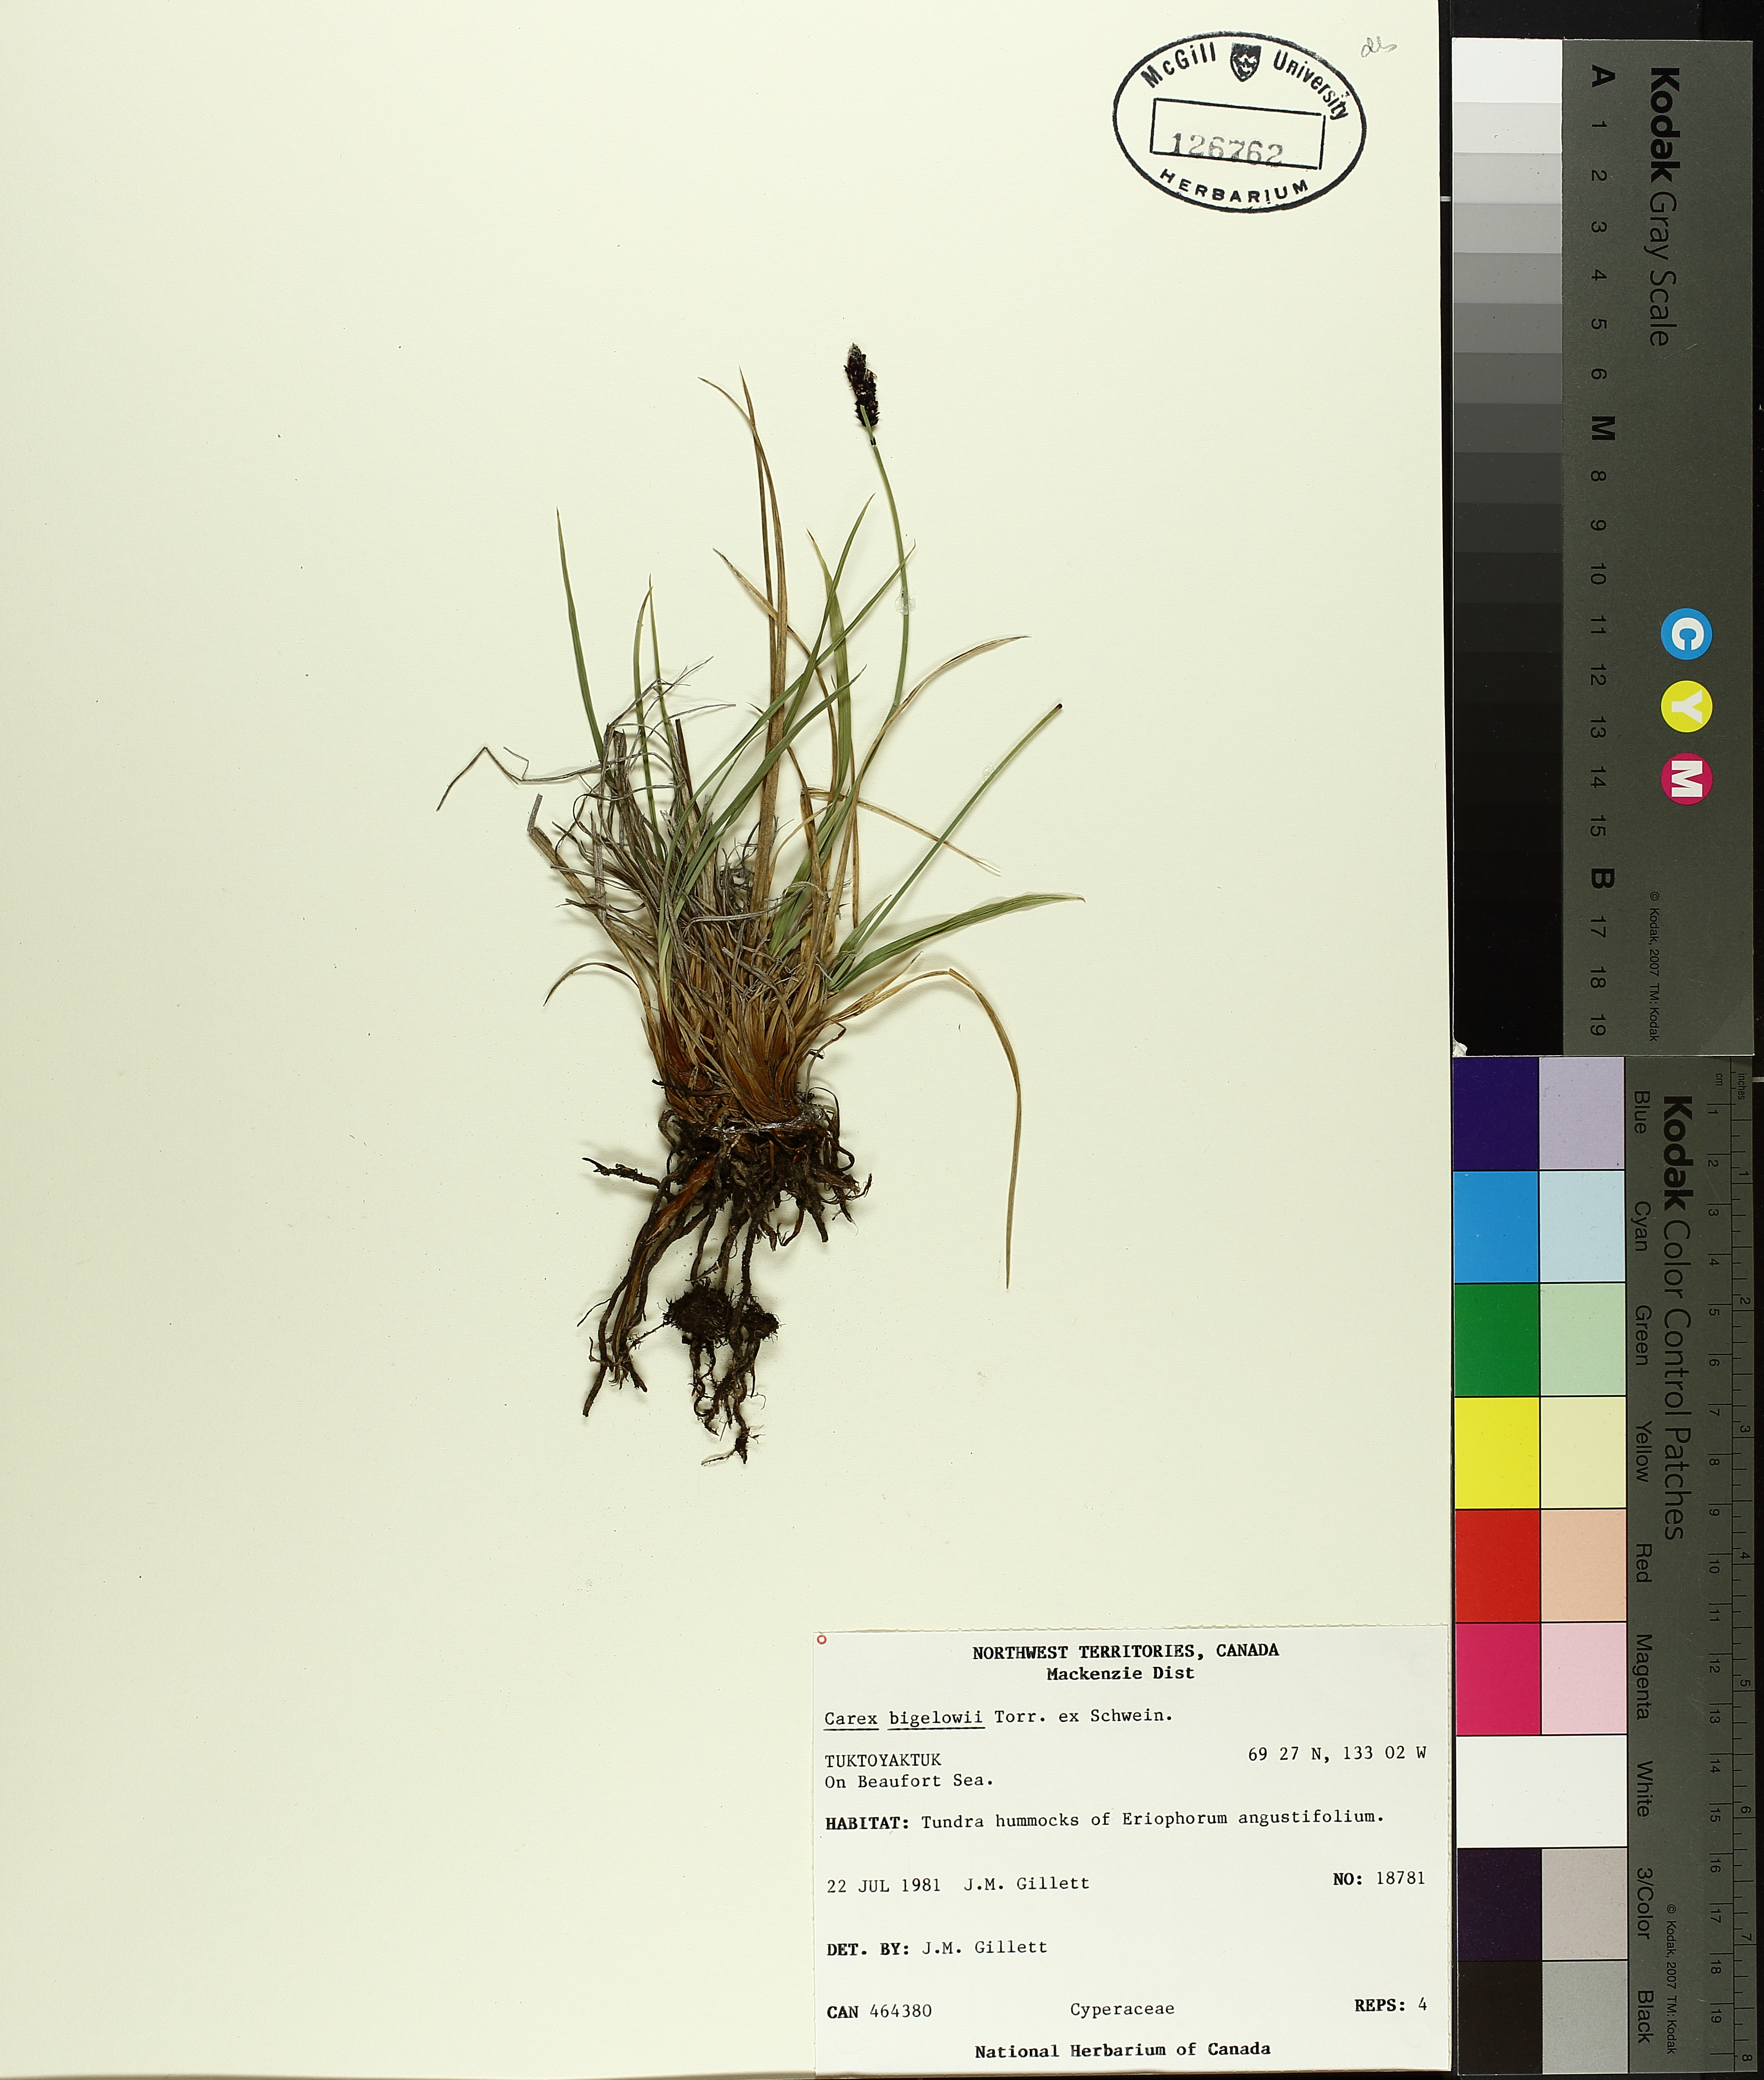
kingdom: Plantae
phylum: Tracheophyta
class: Liliopsida
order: Poales
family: Cyperaceae
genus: Carex
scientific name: Carex bigelowii
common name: Stiff sedge
